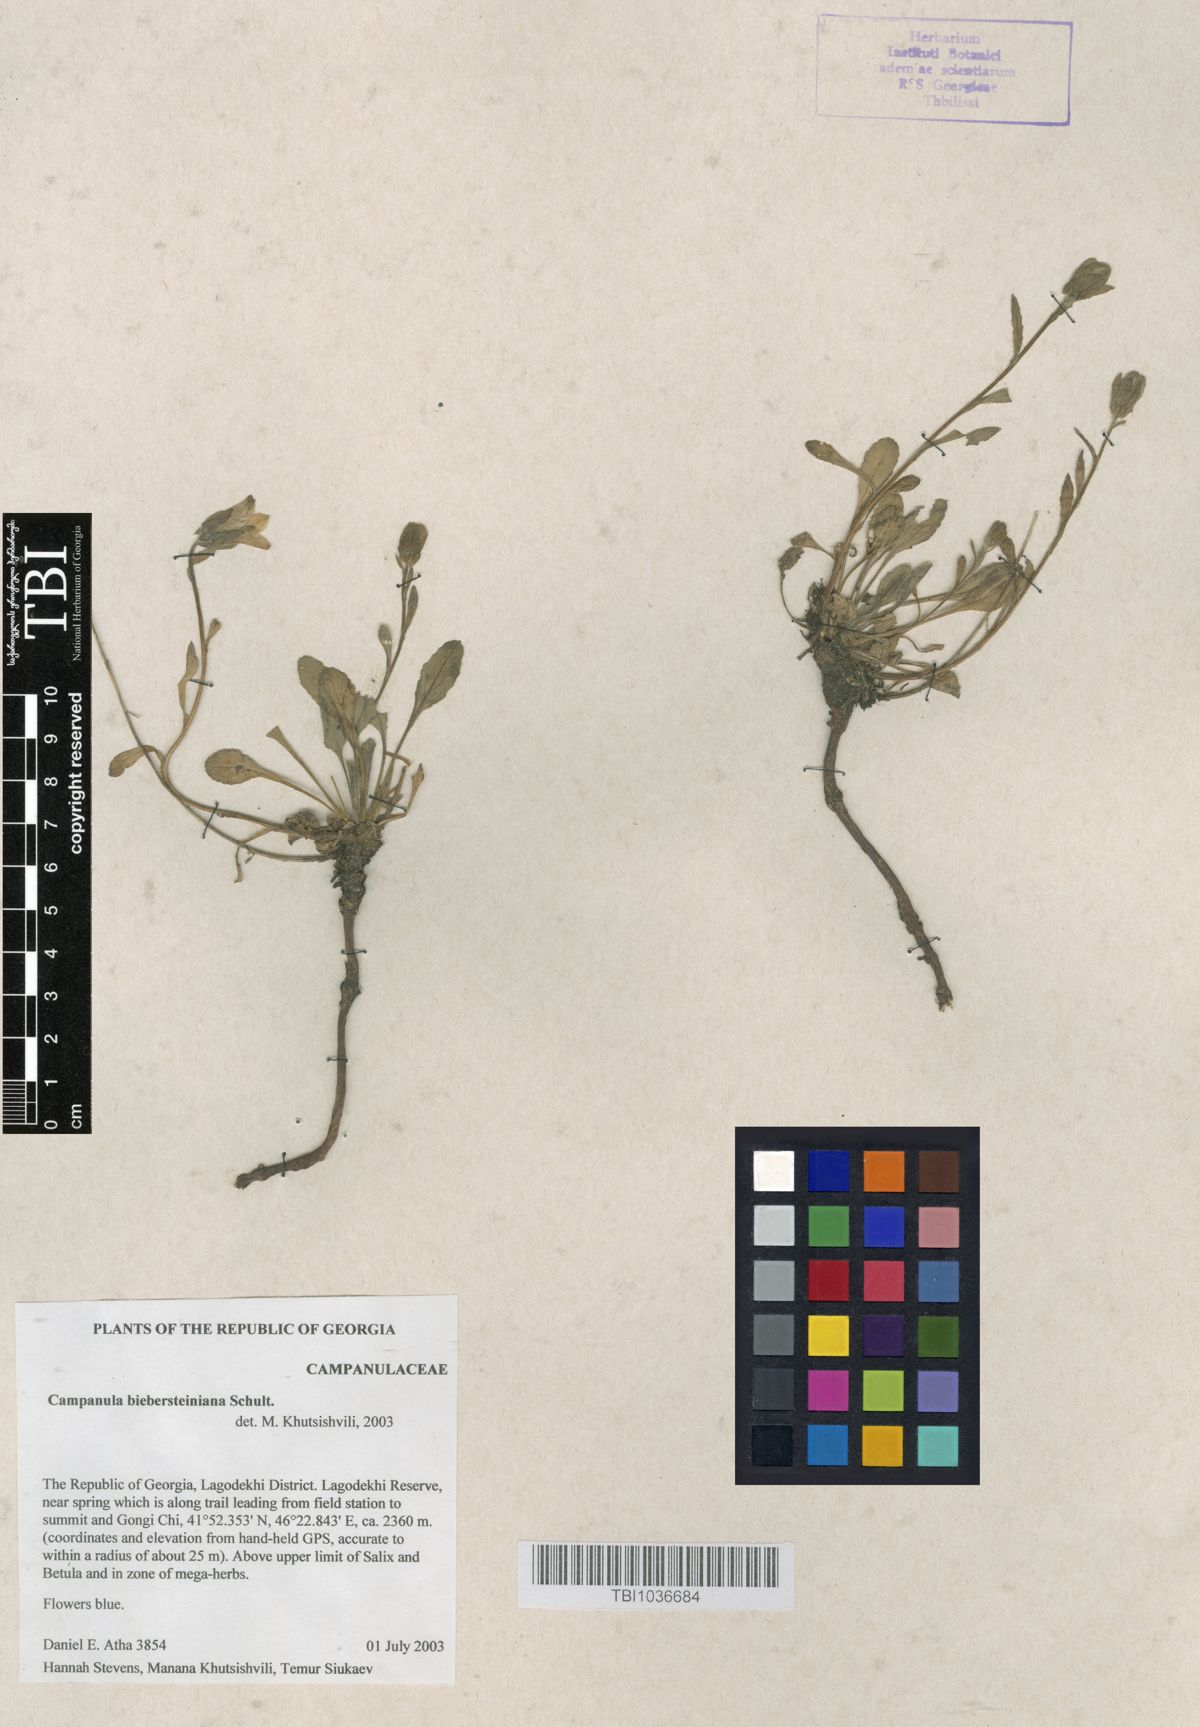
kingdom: Plantae
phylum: Tracheophyta
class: Magnoliopsida
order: Asterales
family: Campanulaceae
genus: Campanula
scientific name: Campanula tridentata
